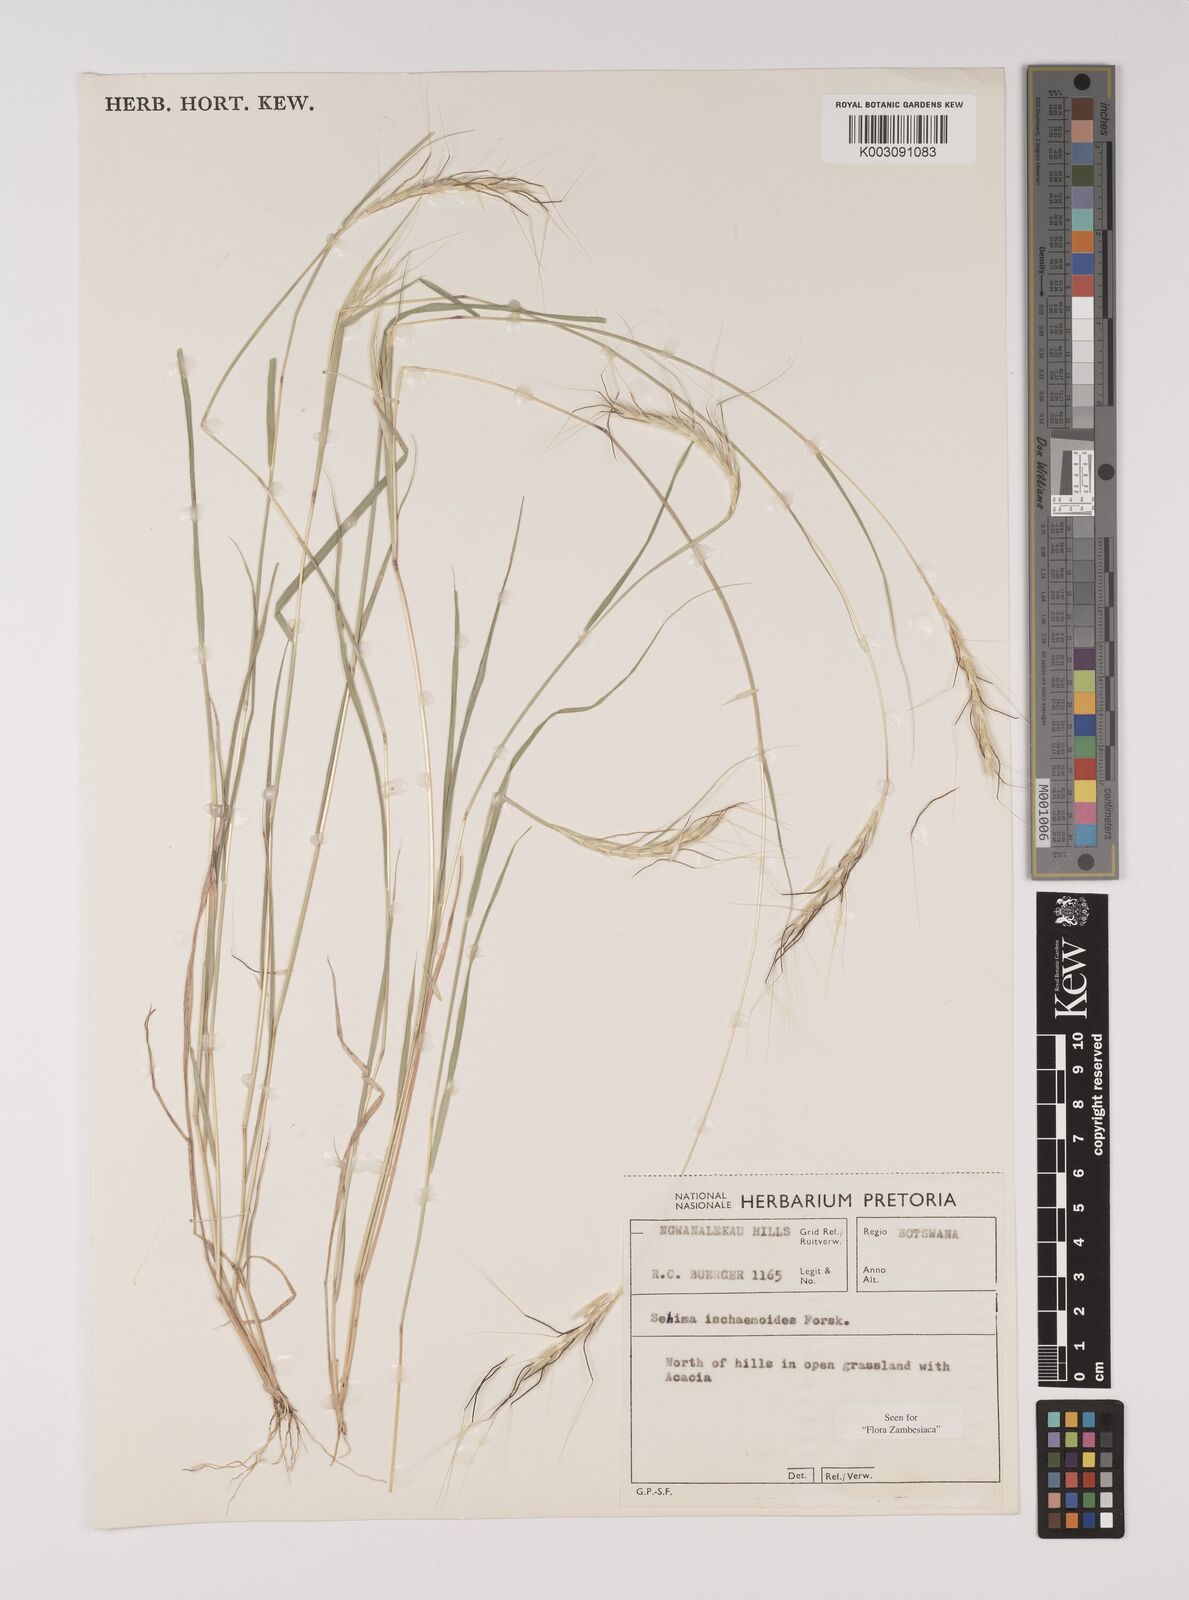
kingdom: Plantae
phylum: Tracheophyta
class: Liliopsida
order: Poales
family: Poaceae
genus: Sehima
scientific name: Sehima ischaemoides
